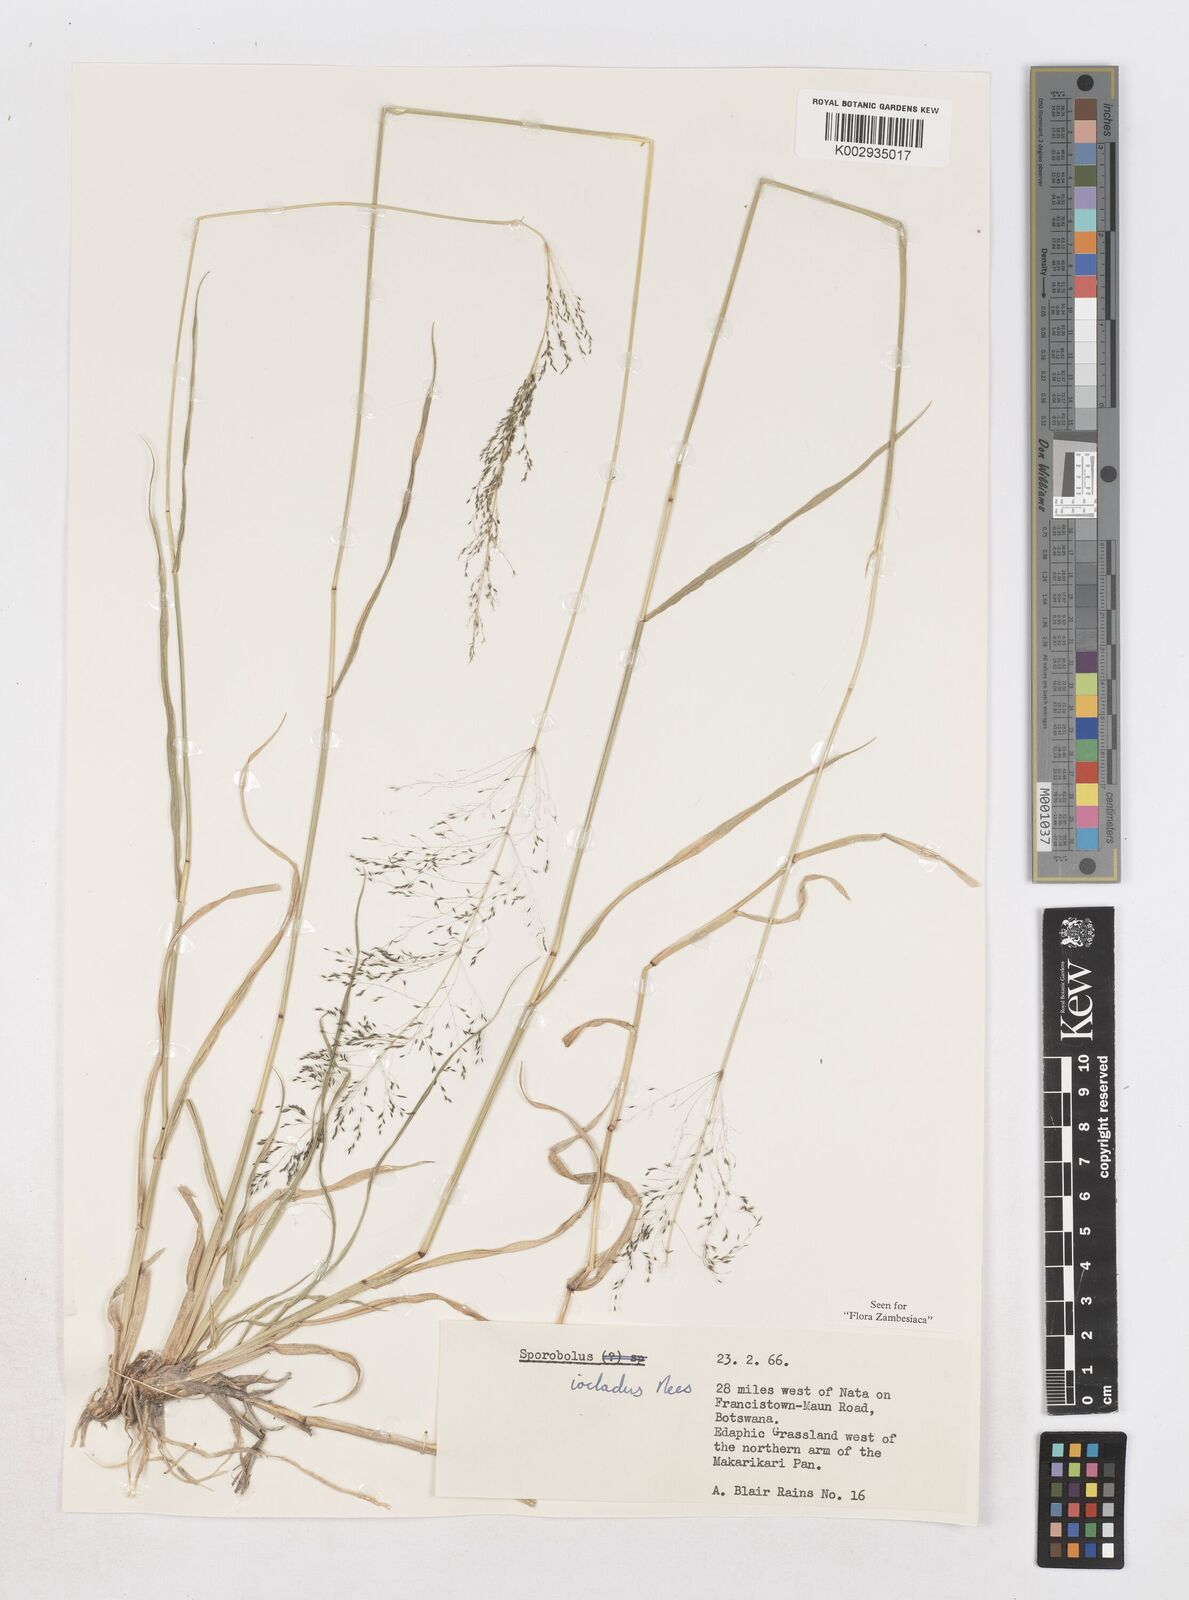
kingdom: Plantae
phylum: Tracheophyta
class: Liliopsida
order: Poales
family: Poaceae
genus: Sporobolus
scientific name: Sporobolus ioclados
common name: Pan dropseed
